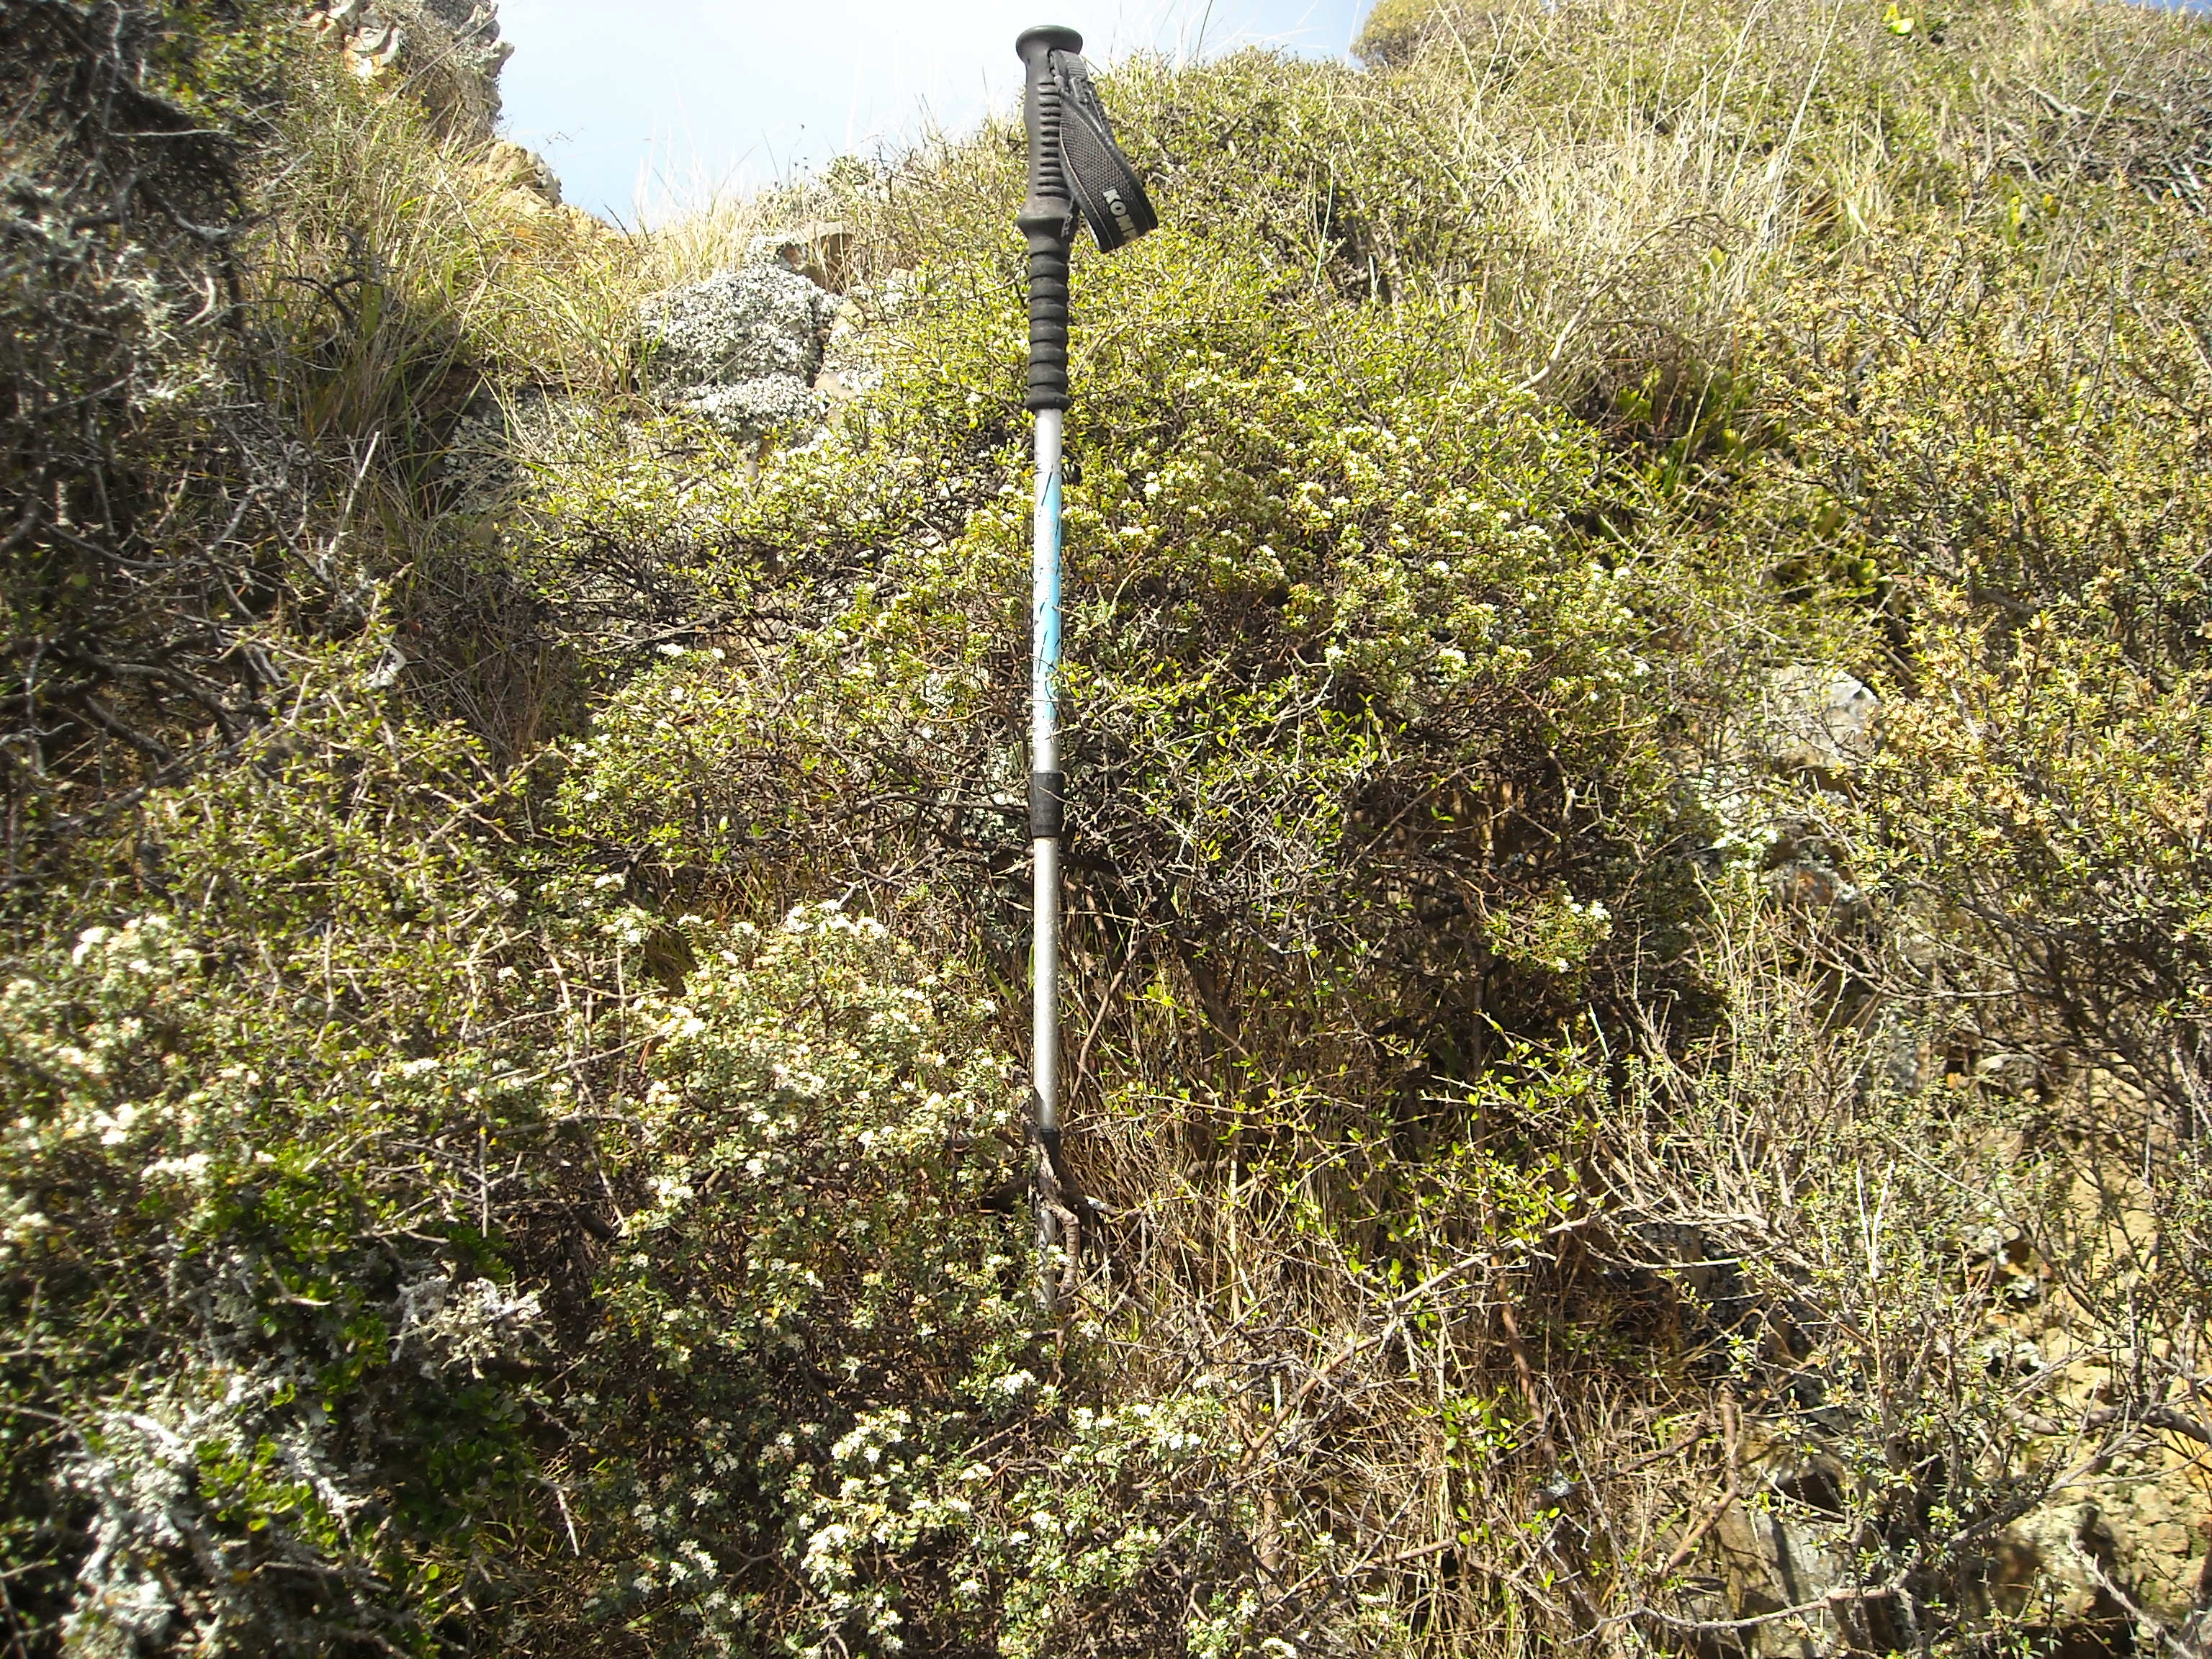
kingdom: Plantae
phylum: Tracheophyta
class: Magnoliopsida
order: Malvales
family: Thymelaeaceae
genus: Pimelea
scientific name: Pimelea cryptica
